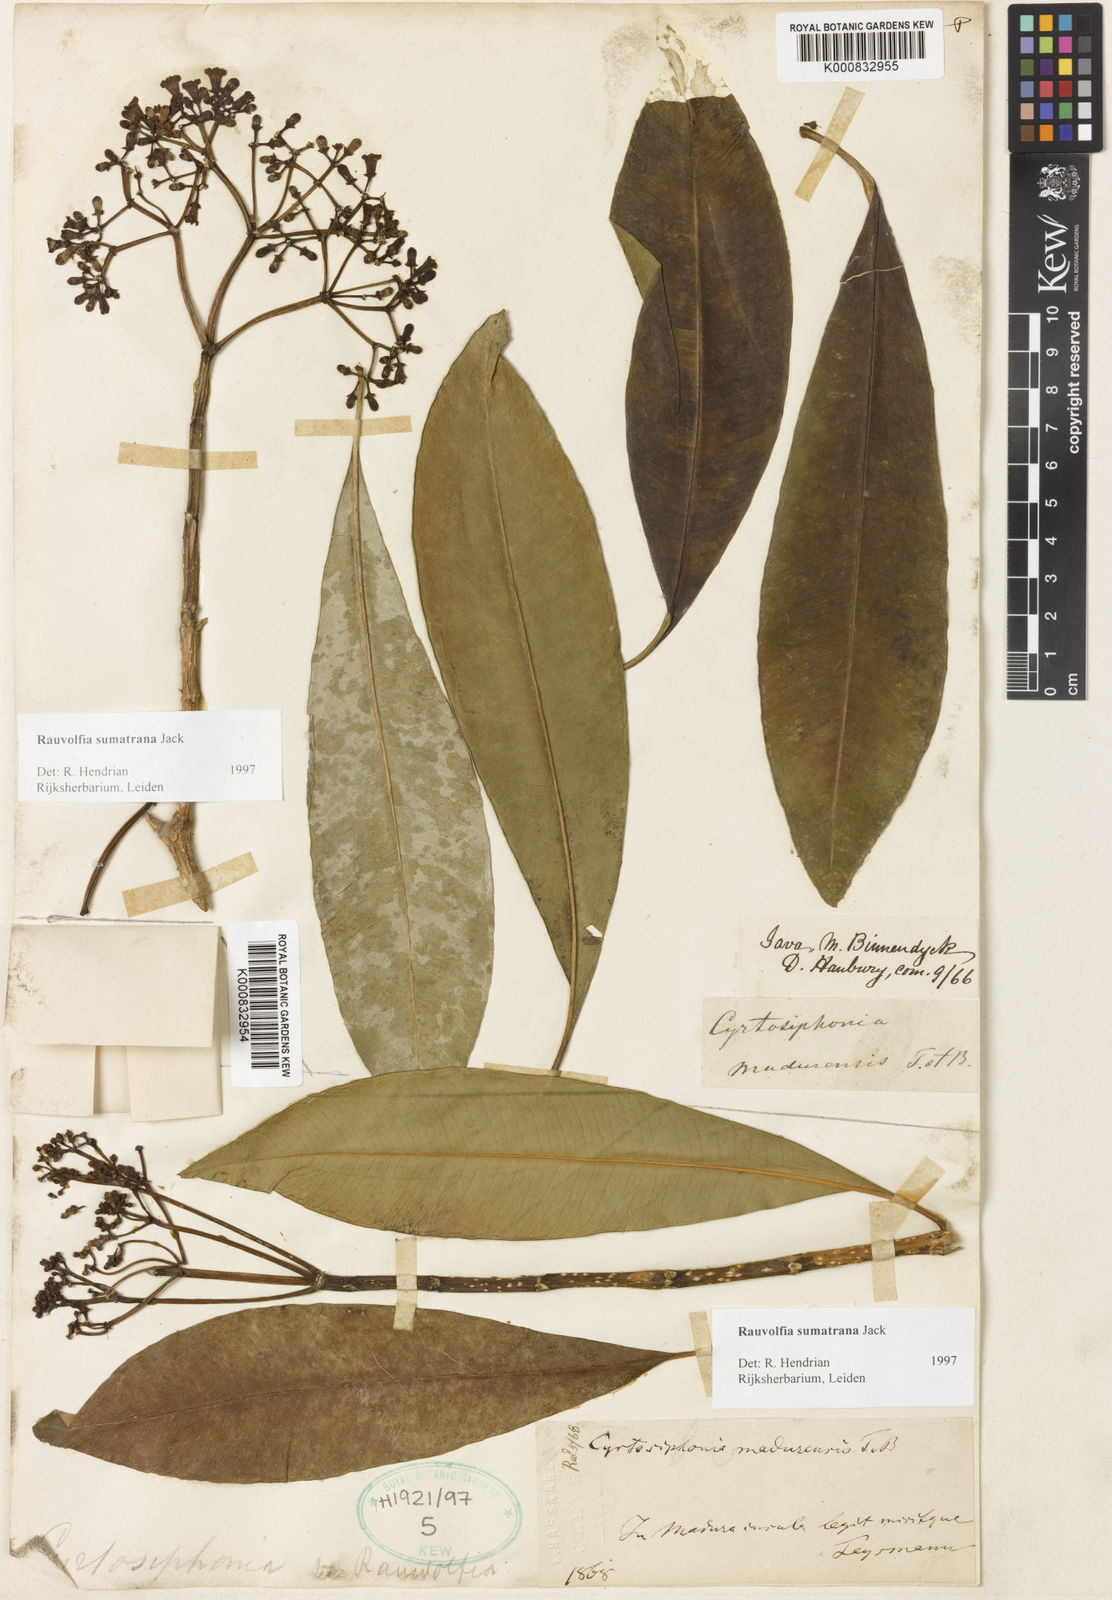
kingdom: Plantae
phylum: Tracheophyta
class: Magnoliopsida
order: Gentianales
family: Apocynaceae
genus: Rauvolfia
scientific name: Rauvolfia sumatrana
